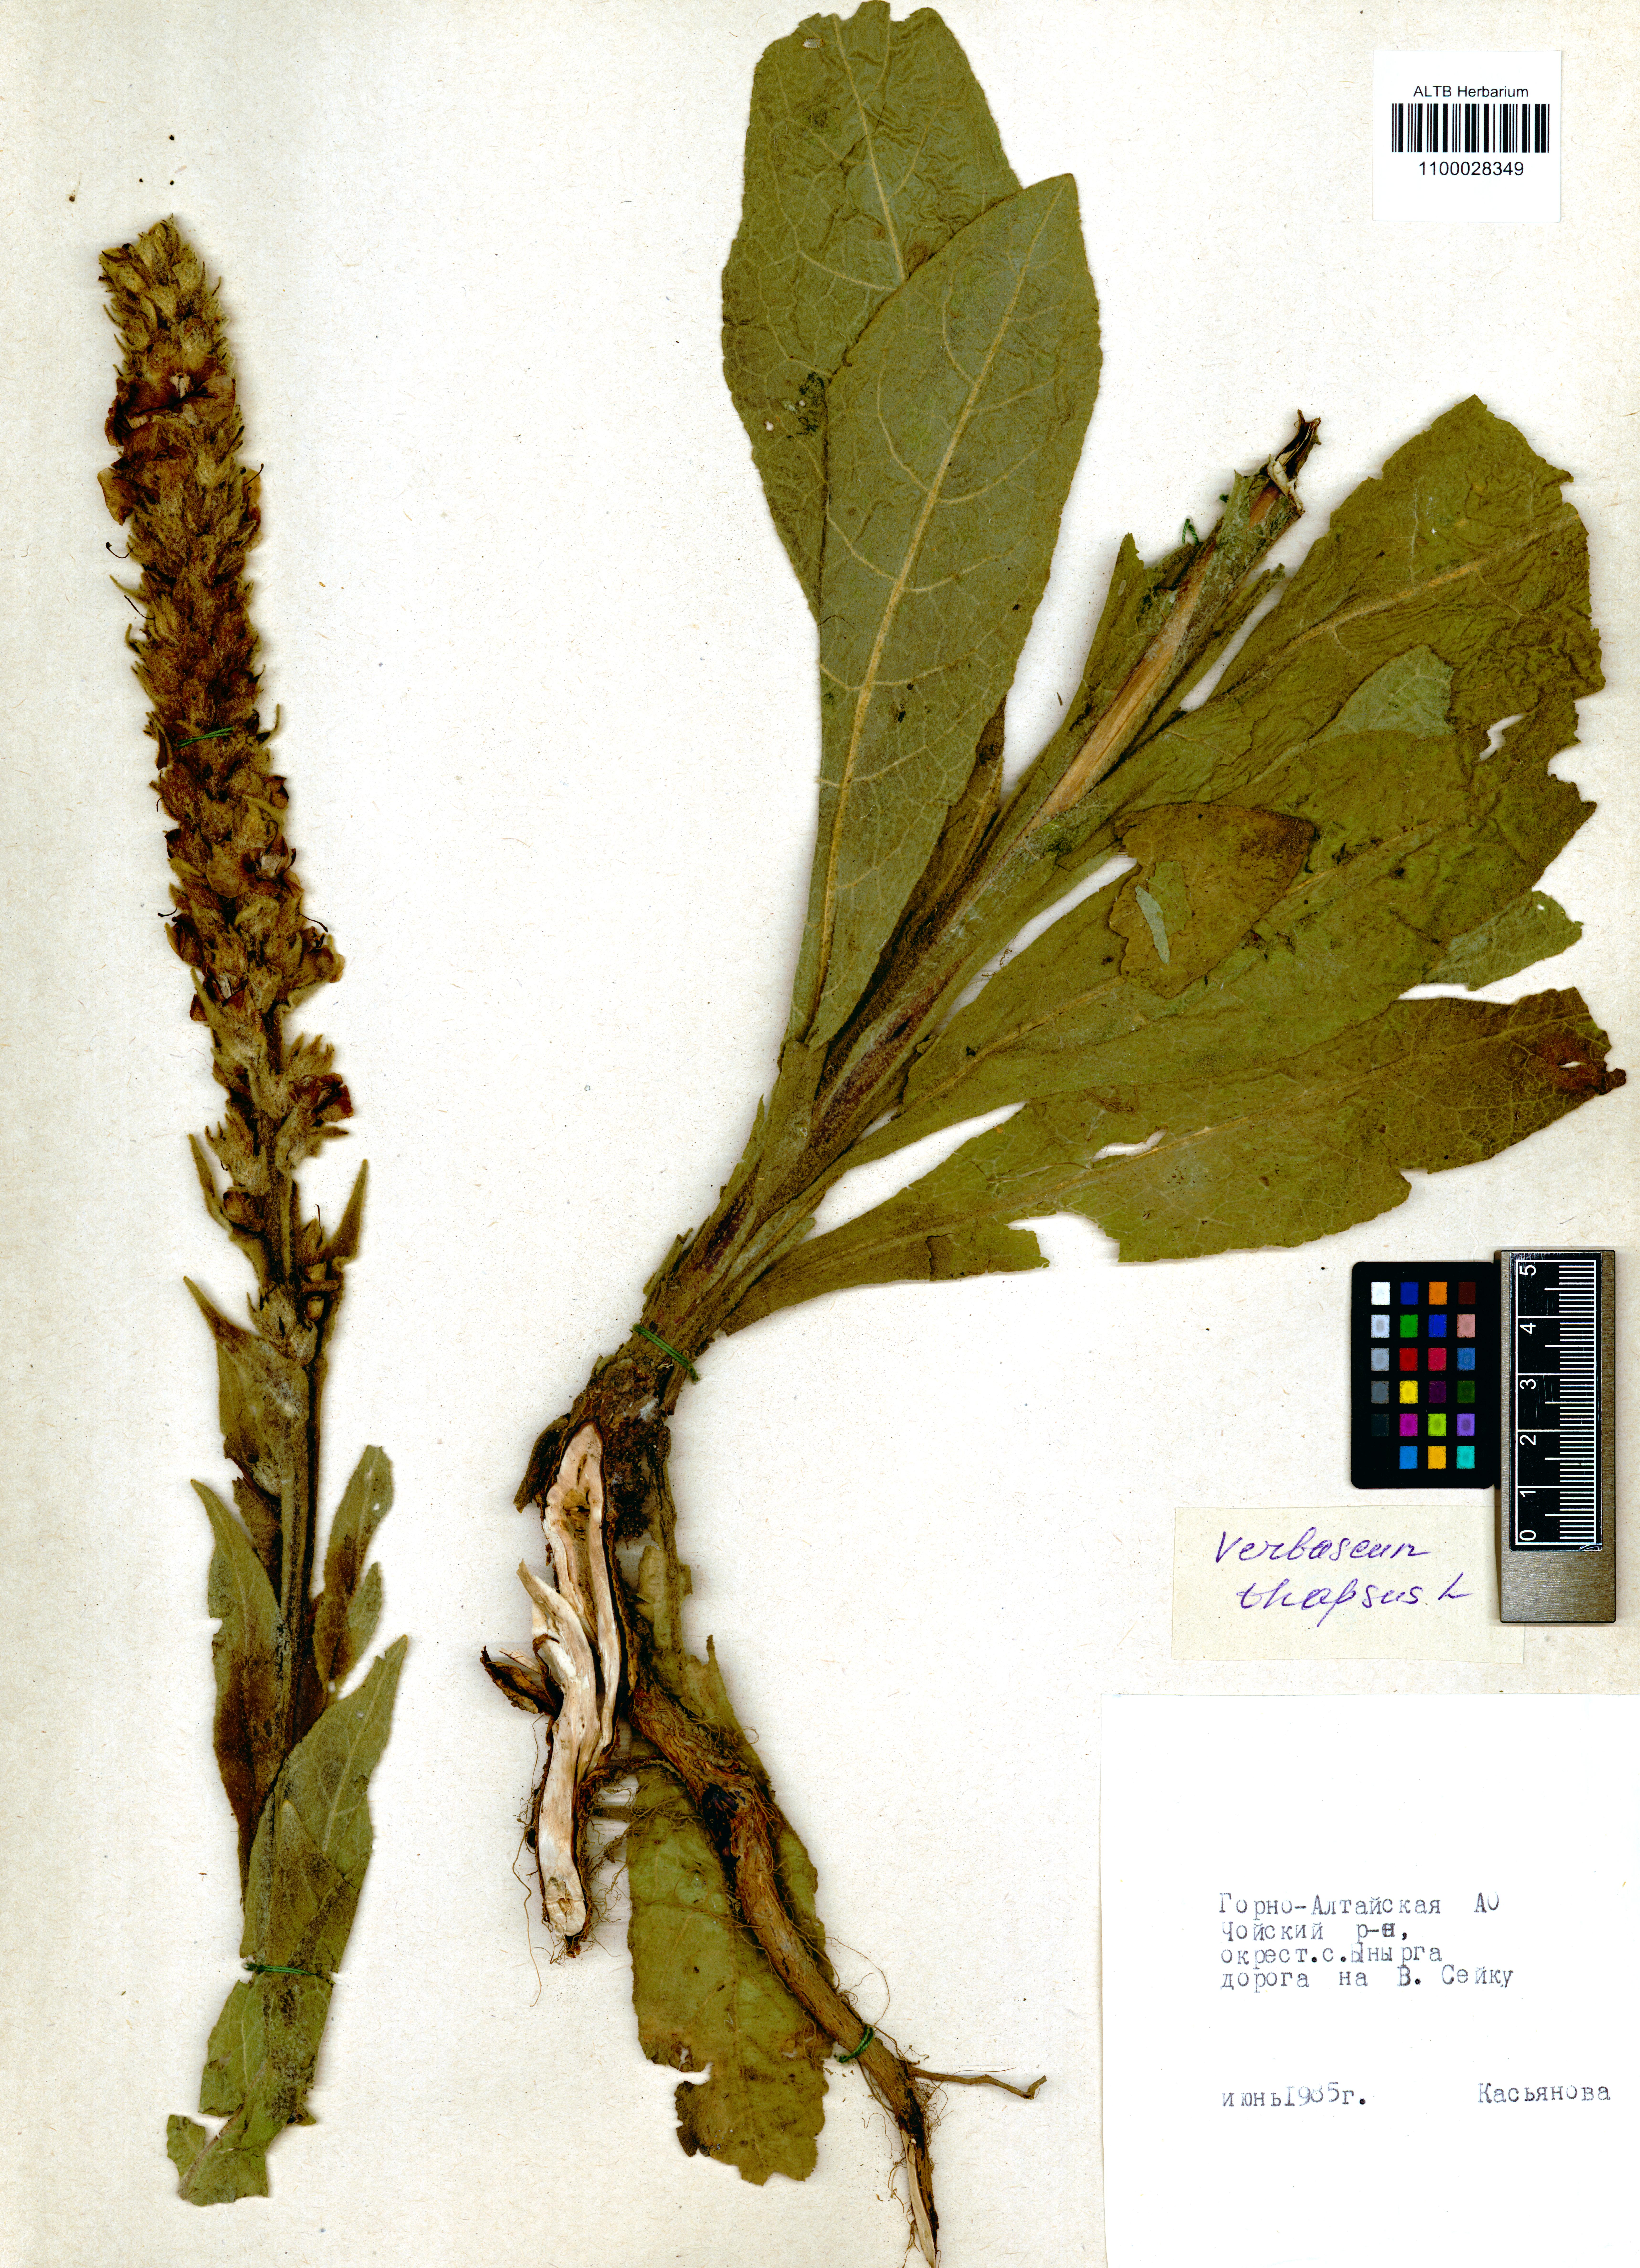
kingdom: Plantae
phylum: Tracheophyta
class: Magnoliopsida
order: Lamiales
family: Scrophulariaceae
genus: Verbascum
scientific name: Verbascum thapsus
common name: Common mullein
